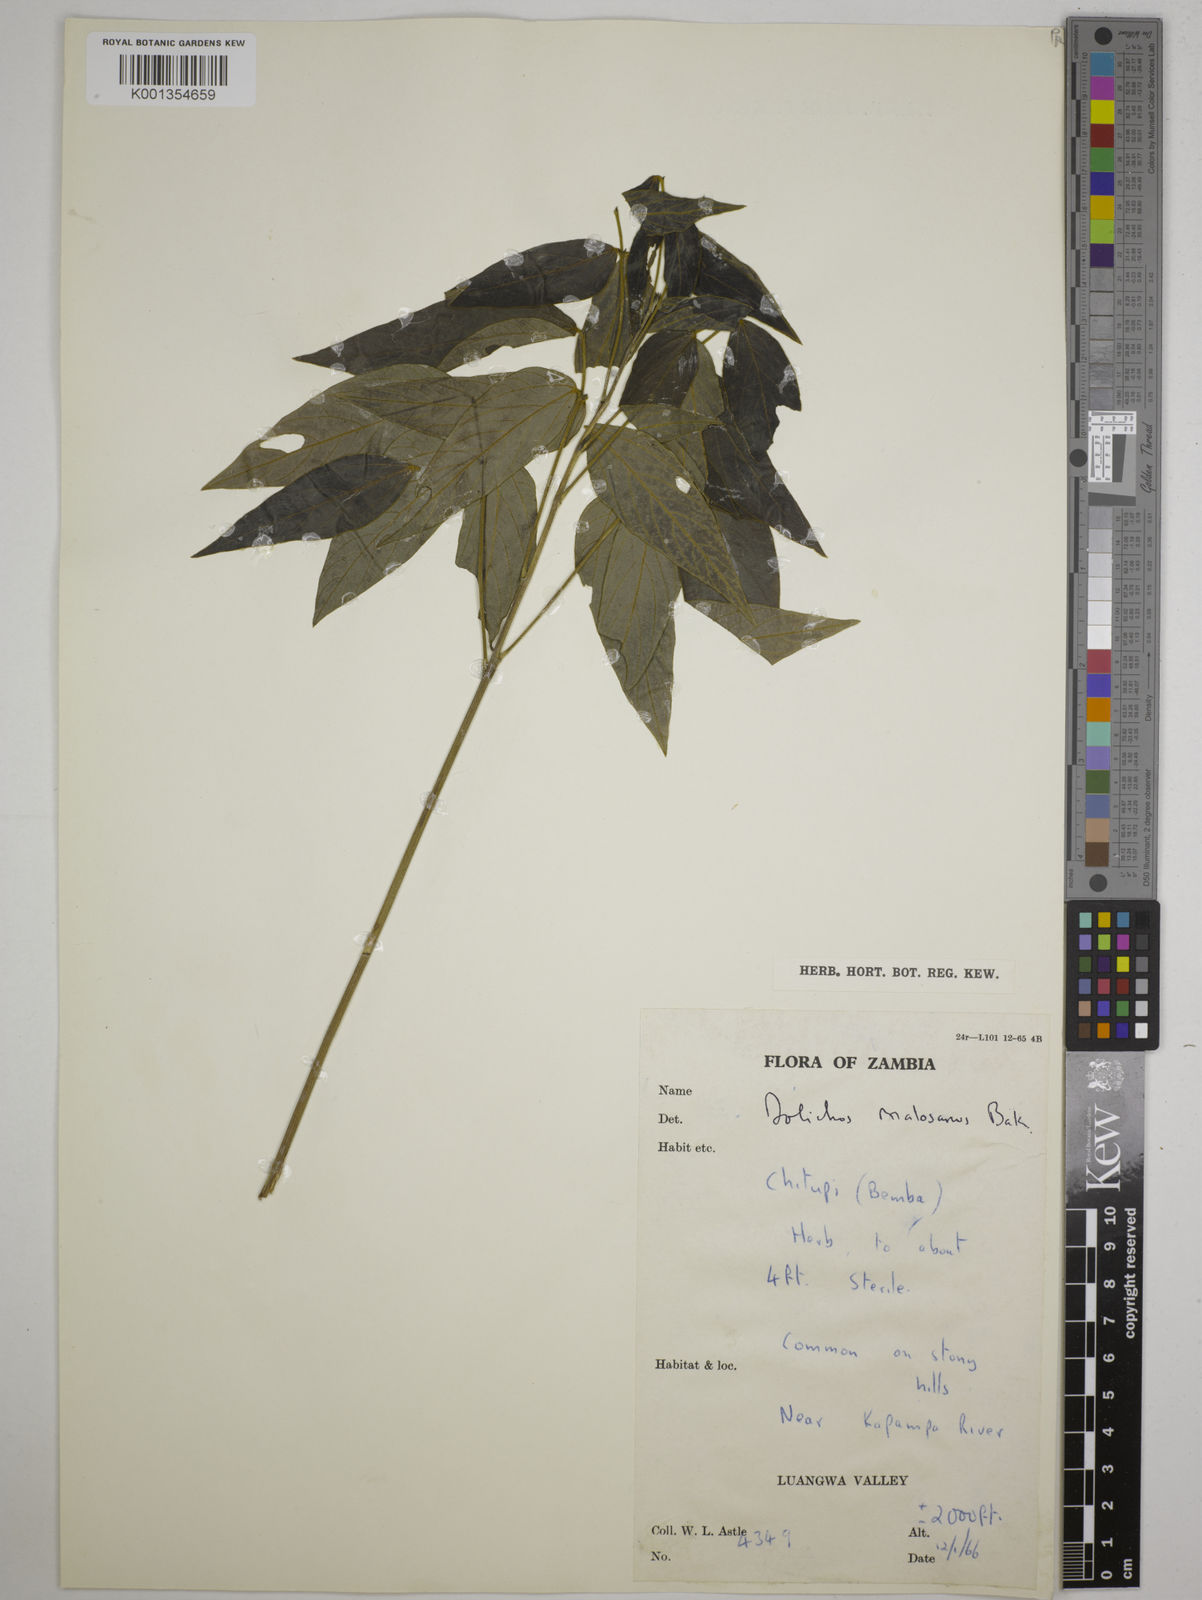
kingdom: Plantae
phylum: Tracheophyta
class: Magnoliopsida
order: Fabales
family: Fabaceae
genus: Dolichos
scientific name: Dolichos kilimandscharicus
